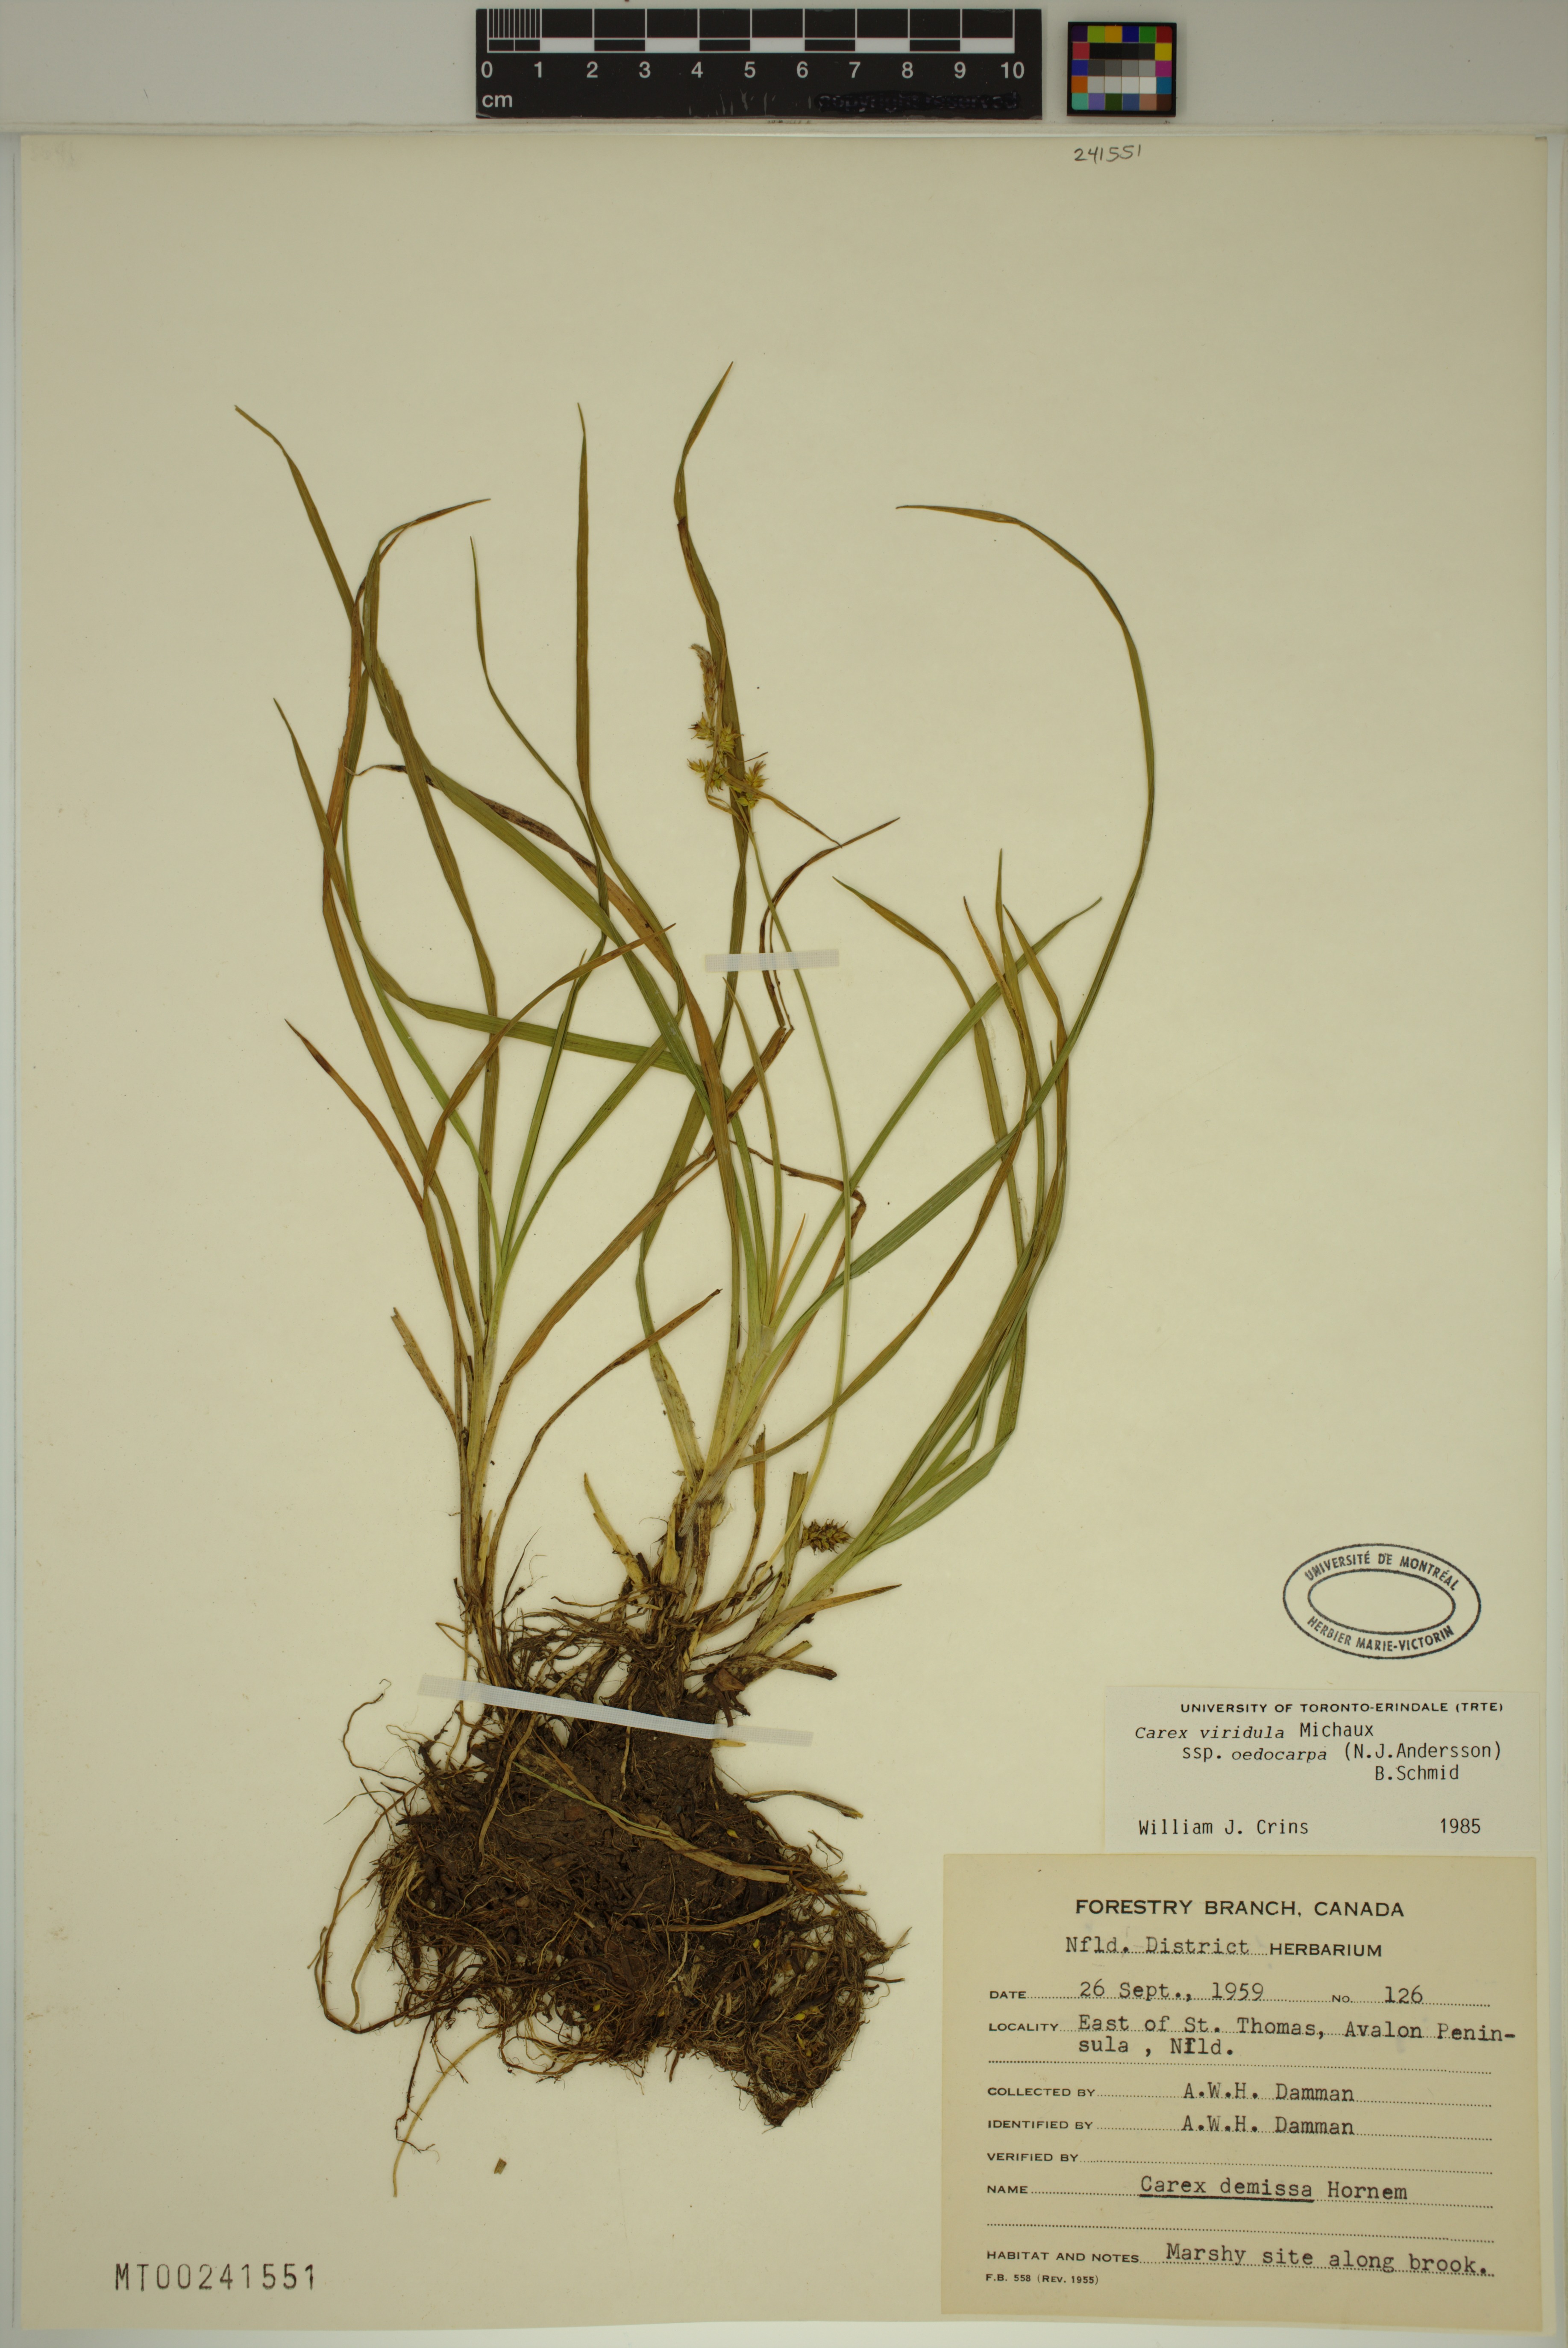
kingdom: Plantae
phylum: Tracheophyta
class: Liliopsida
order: Poales
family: Cyperaceae
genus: Carex
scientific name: Carex demissa
